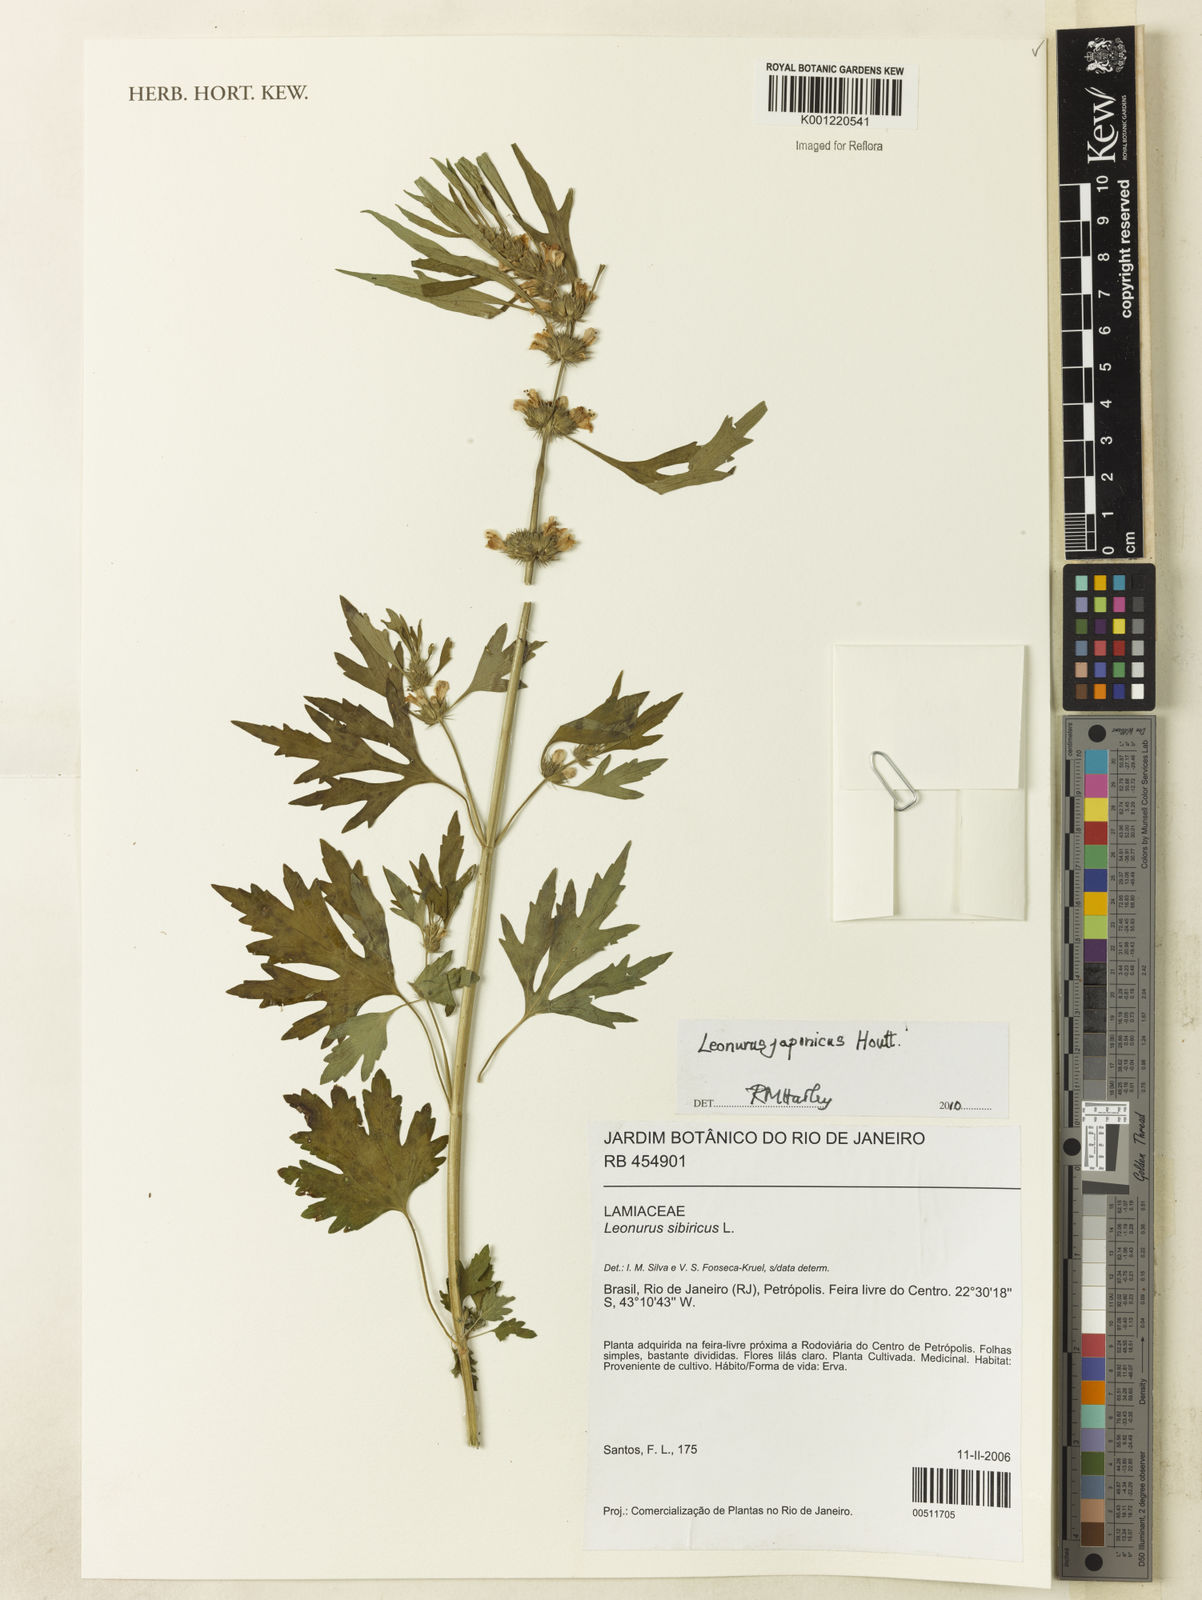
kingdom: Plantae
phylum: Tracheophyta
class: Magnoliopsida
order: Lamiales
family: Lamiaceae
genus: Leonurus
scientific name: Leonurus japonicus
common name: Honeyweed
